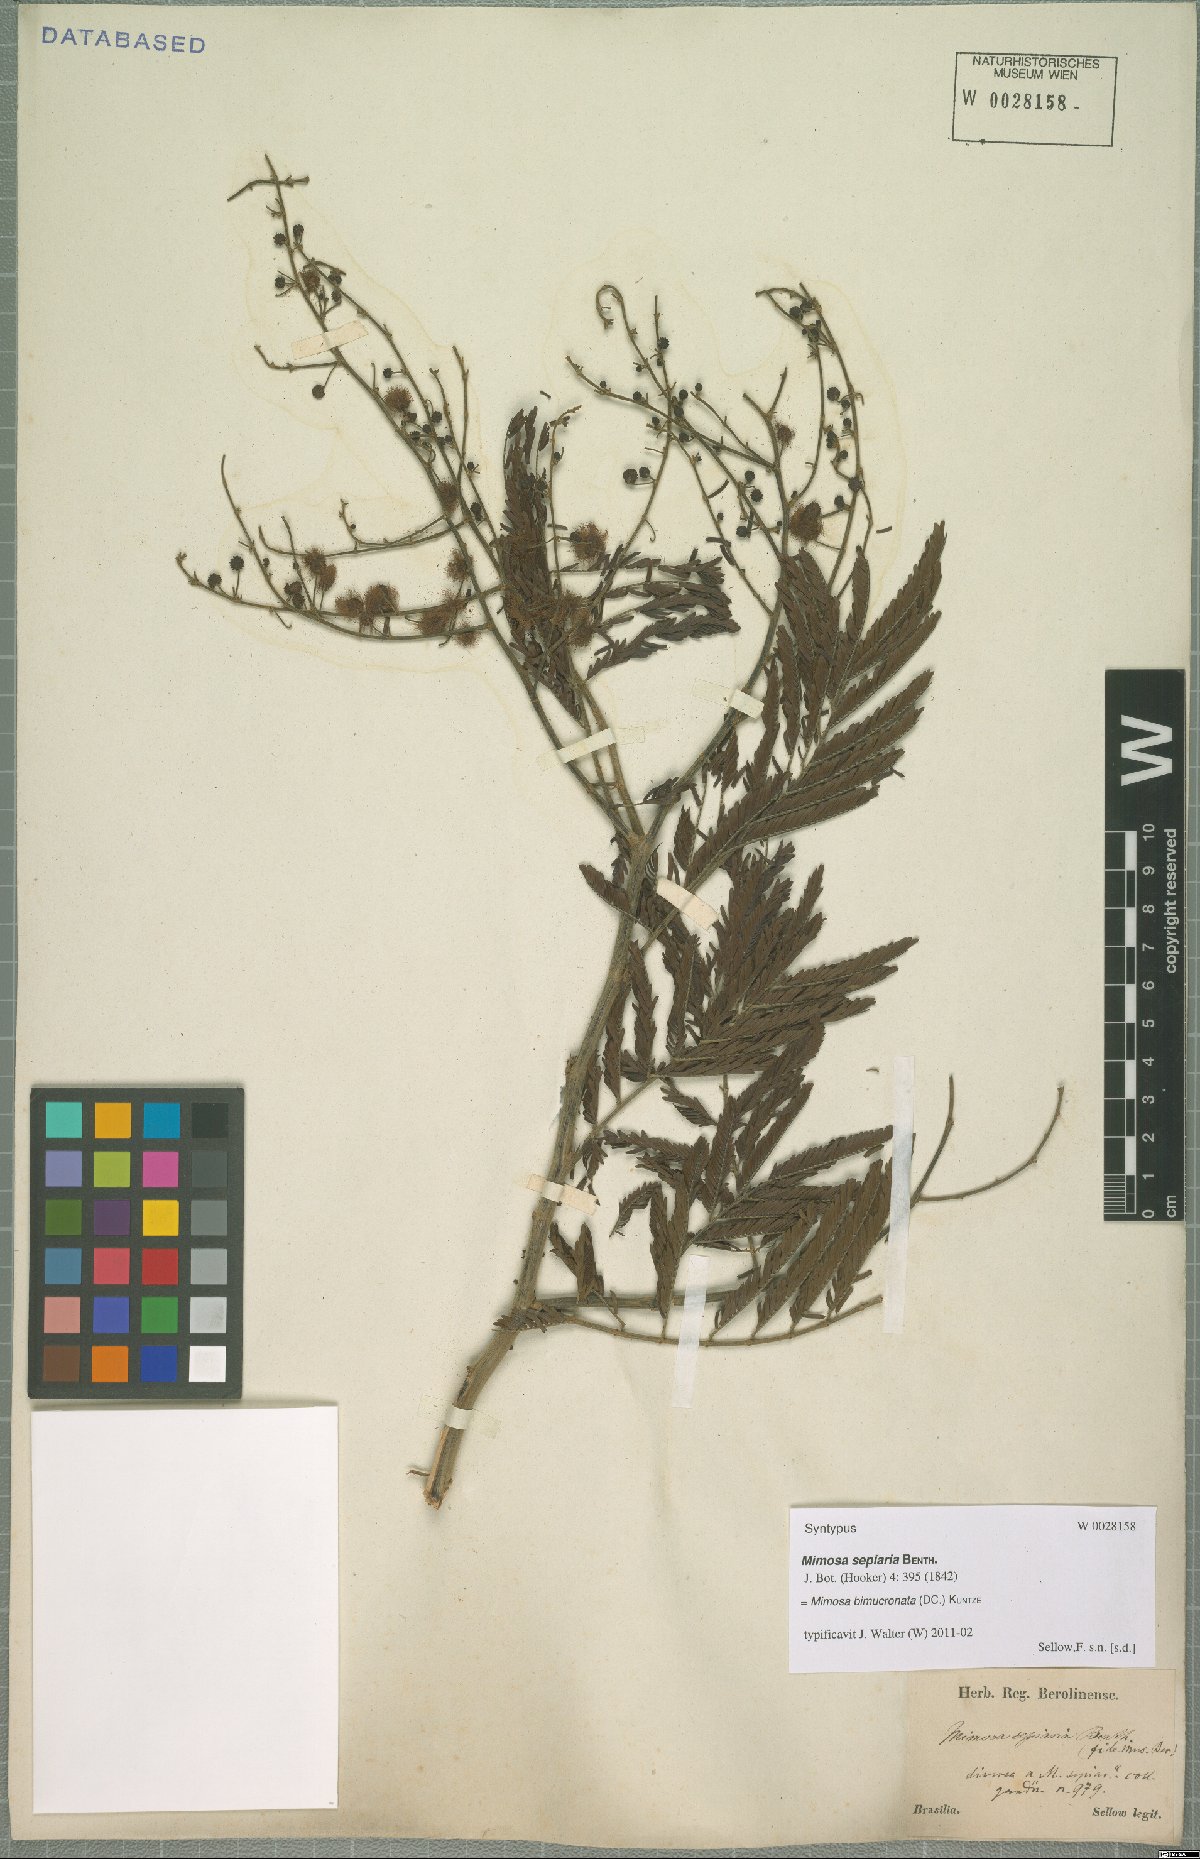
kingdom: Plantae
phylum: Tracheophyta
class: Magnoliopsida
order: Fabales
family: Fabaceae
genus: Mimosa
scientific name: Mimosa bimucronata
